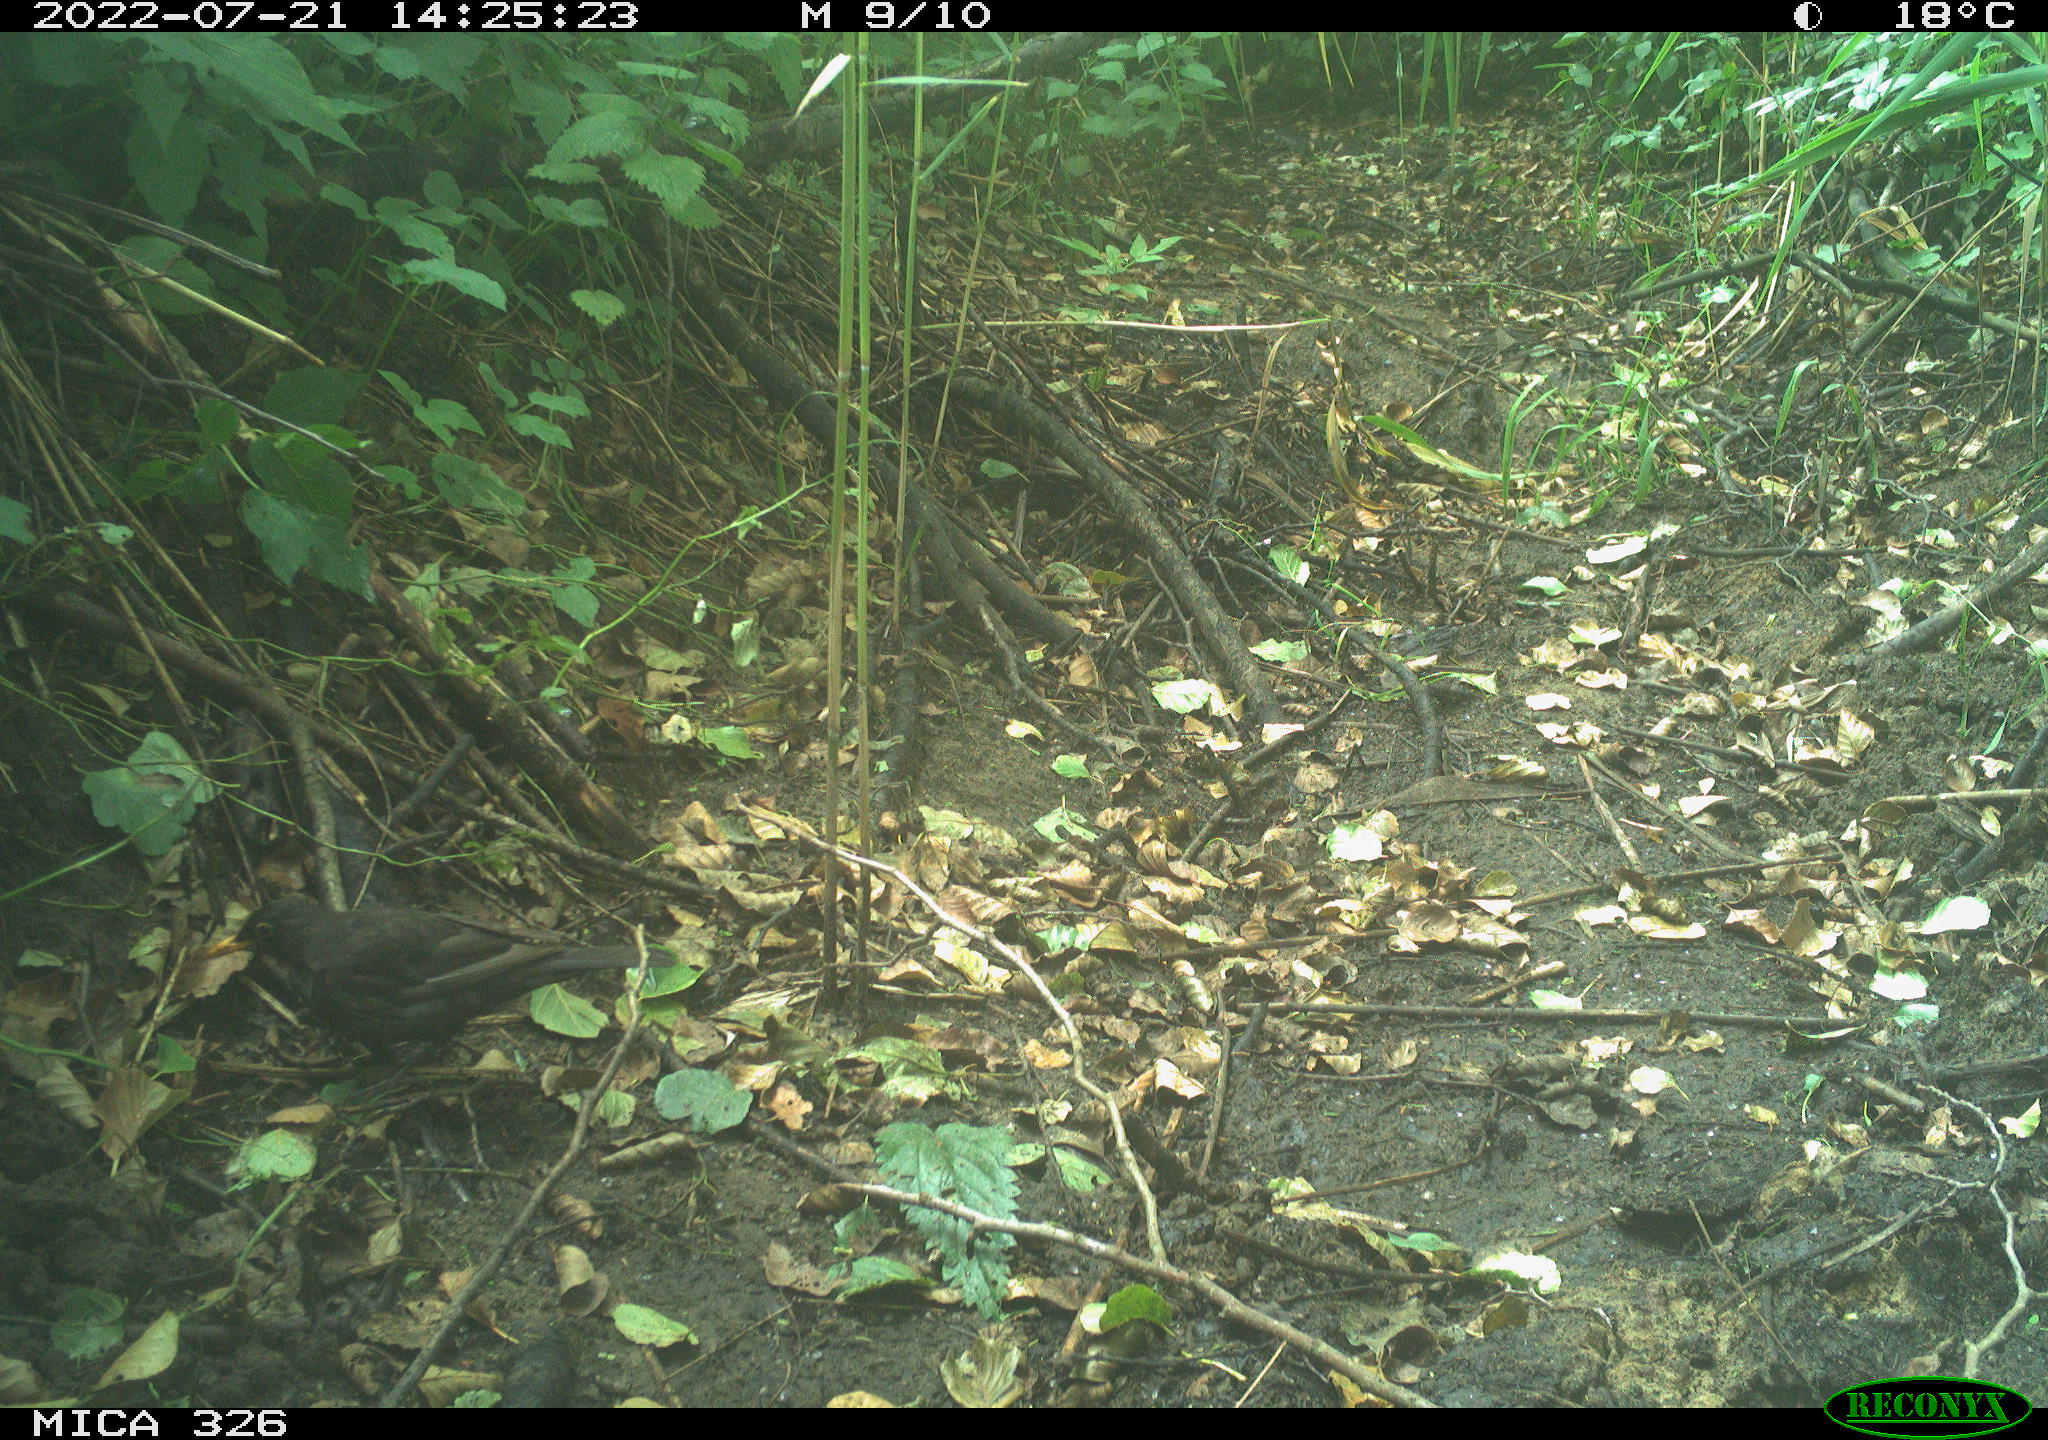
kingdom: Animalia
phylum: Chordata
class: Aves
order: Passeriformes
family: Turdidae
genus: Turdus
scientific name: Turdus merula
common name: Common blackbird
